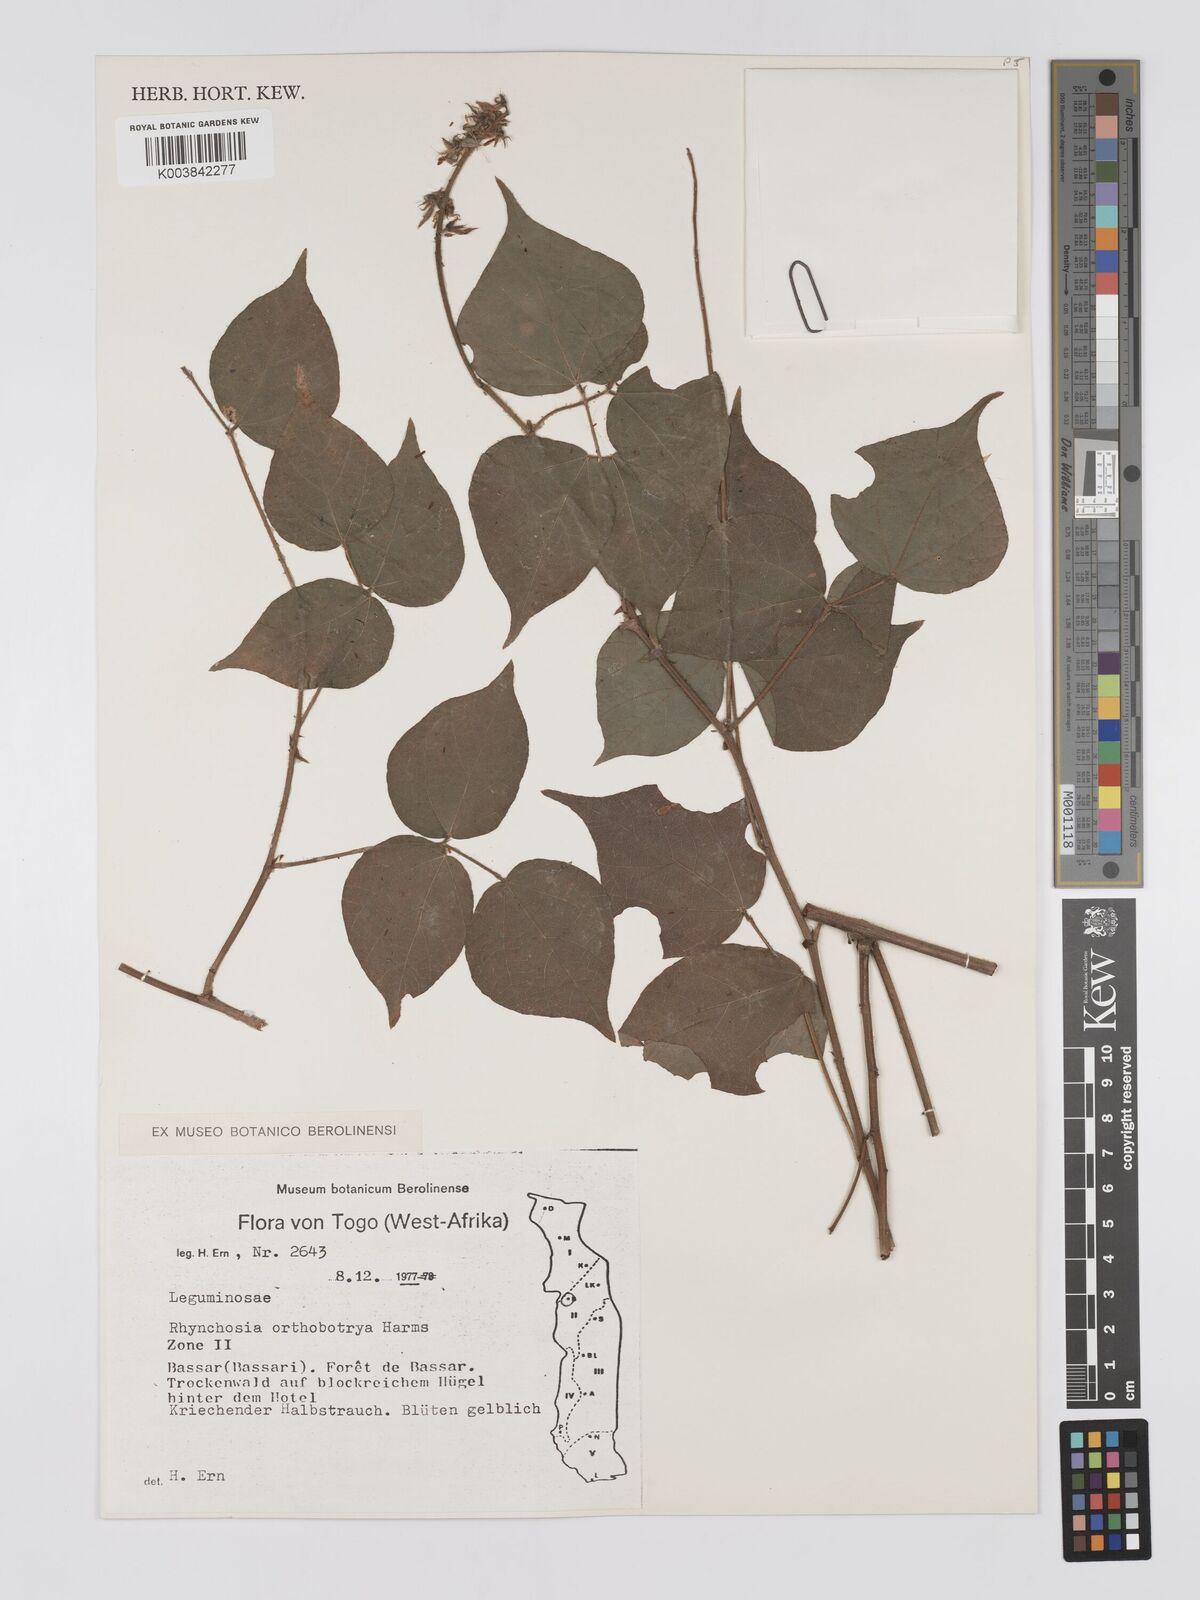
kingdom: Plantae
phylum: Tracheophyta
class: Magnoliopsida
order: Fabales
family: Fabaceae
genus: Rhynchosia
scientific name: Rhynchosia orthobotrya
